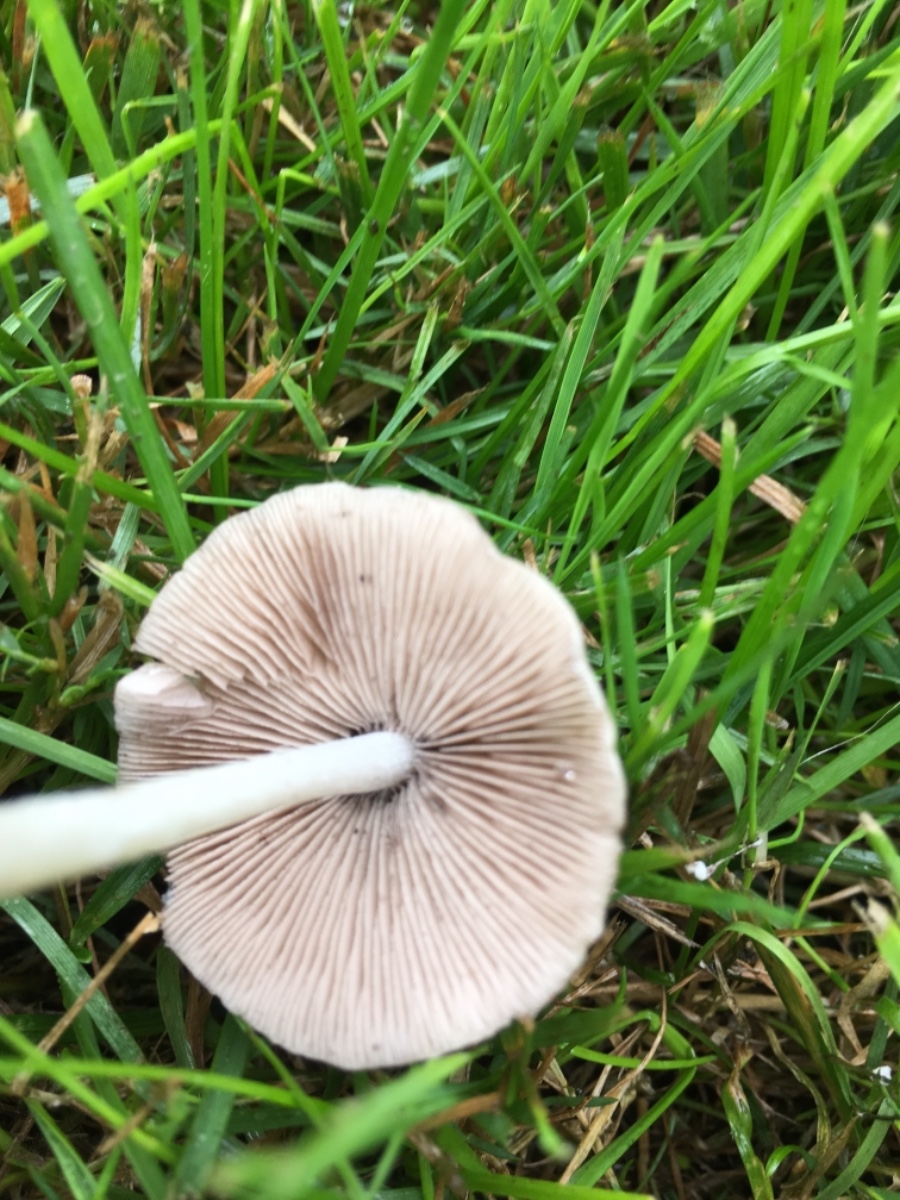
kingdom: Fungi
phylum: Basidiomycota
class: Agaricomycetes
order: Agaricales
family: Psathyrellaceae
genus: Psathyrella
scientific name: Psathyrella
